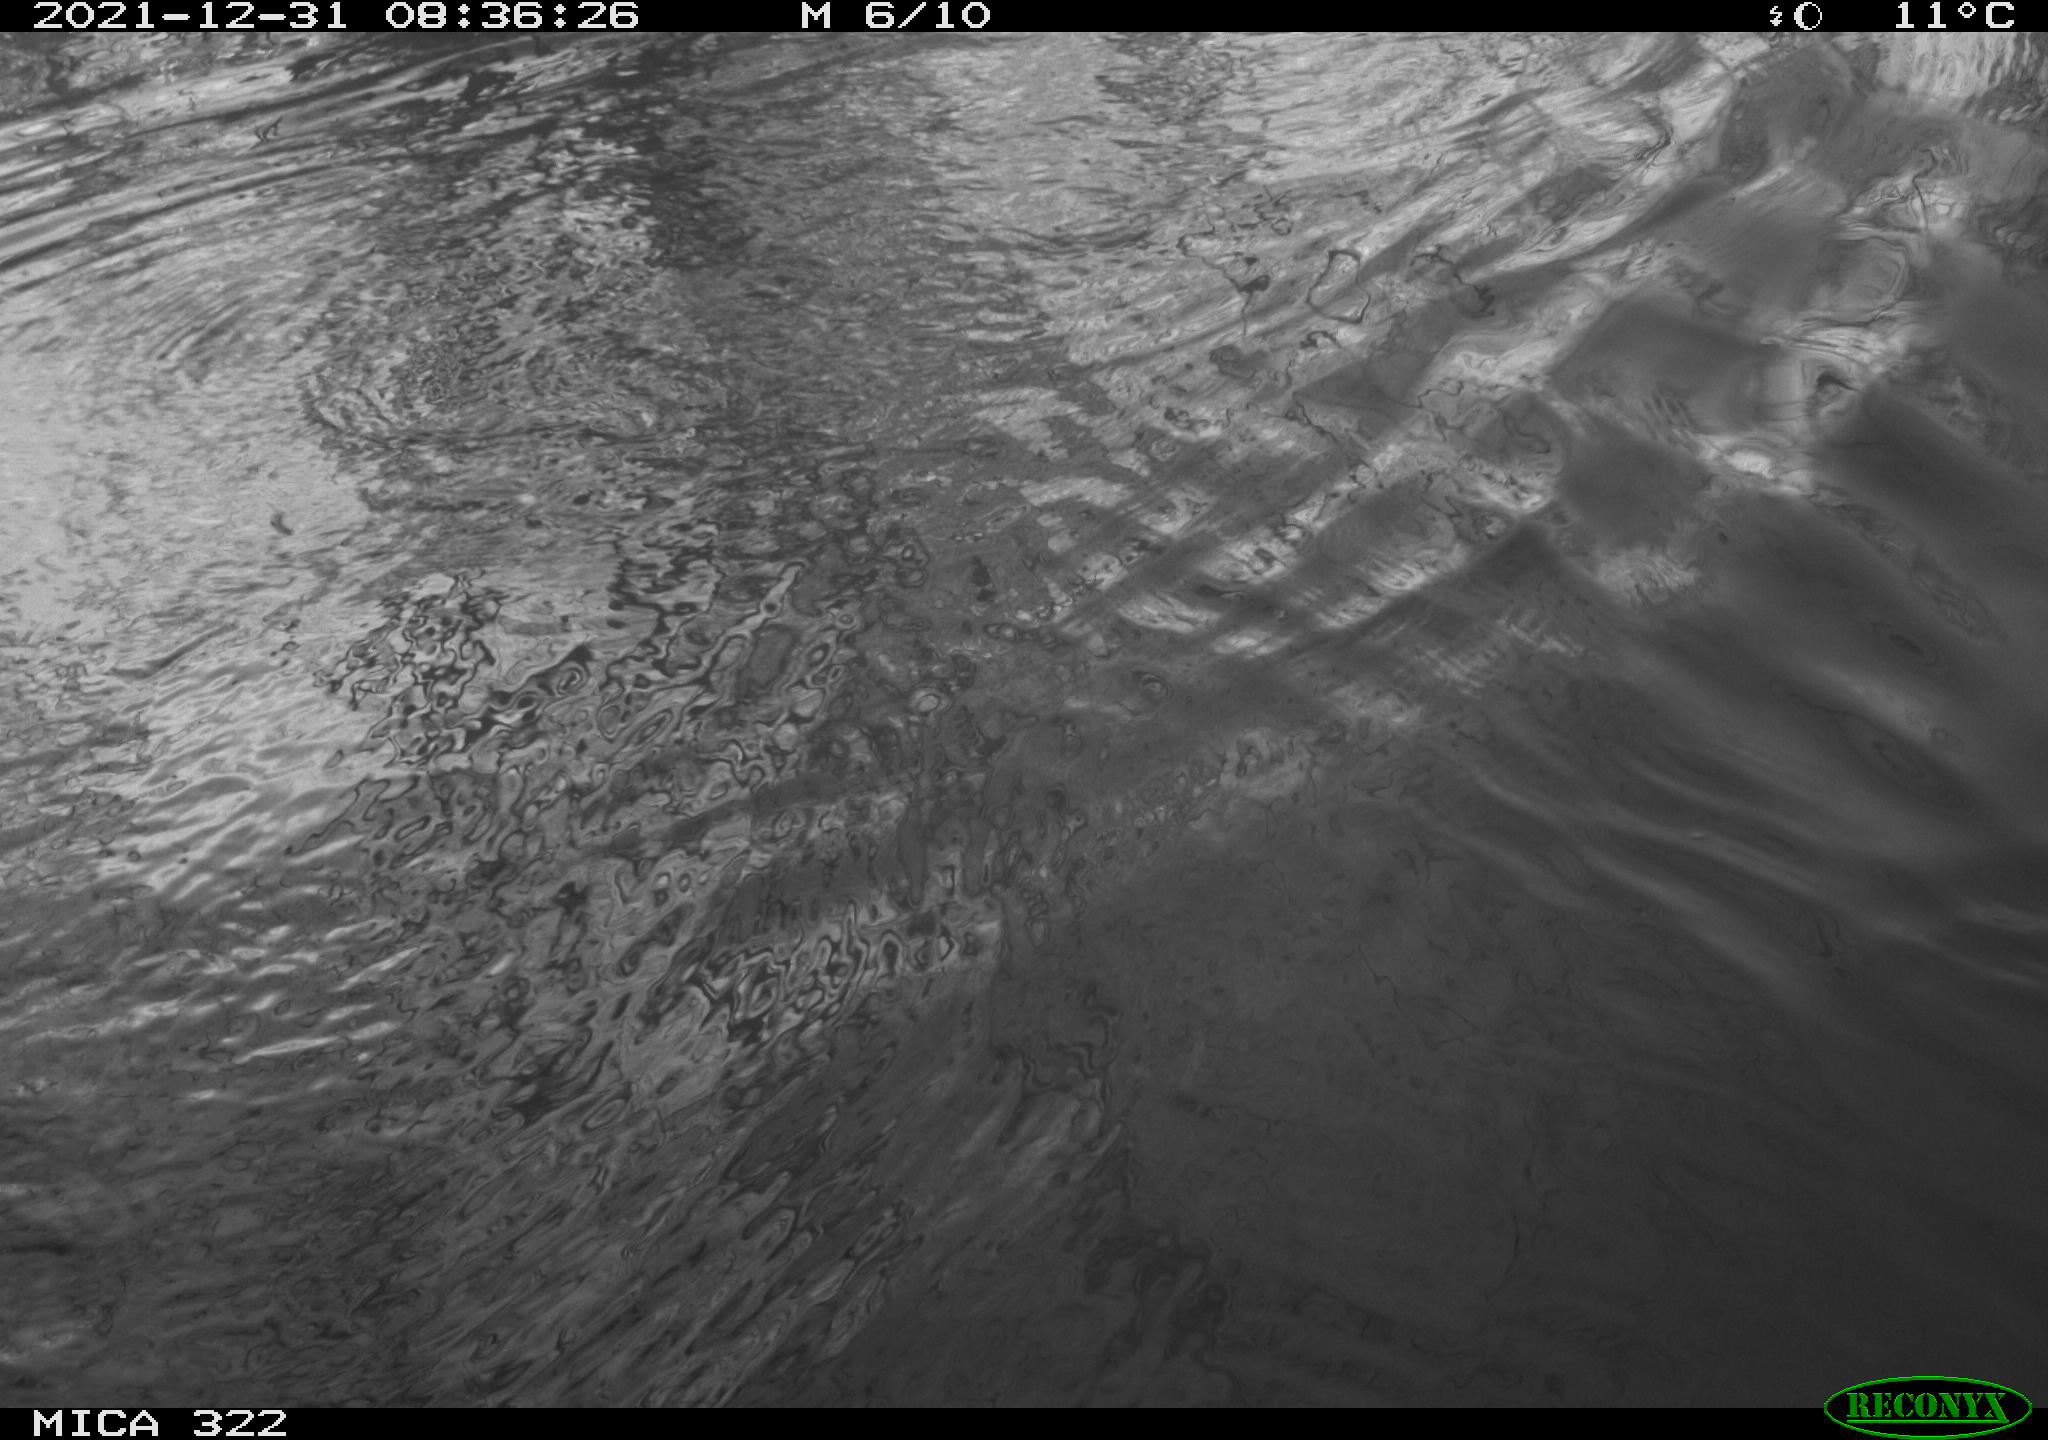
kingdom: Animalia
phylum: Chordata
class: Aves
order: Suliformes
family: Phalacrocoracidae
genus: Phalacrocorax
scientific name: Phalacrocorax carbo
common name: Great cormorant
